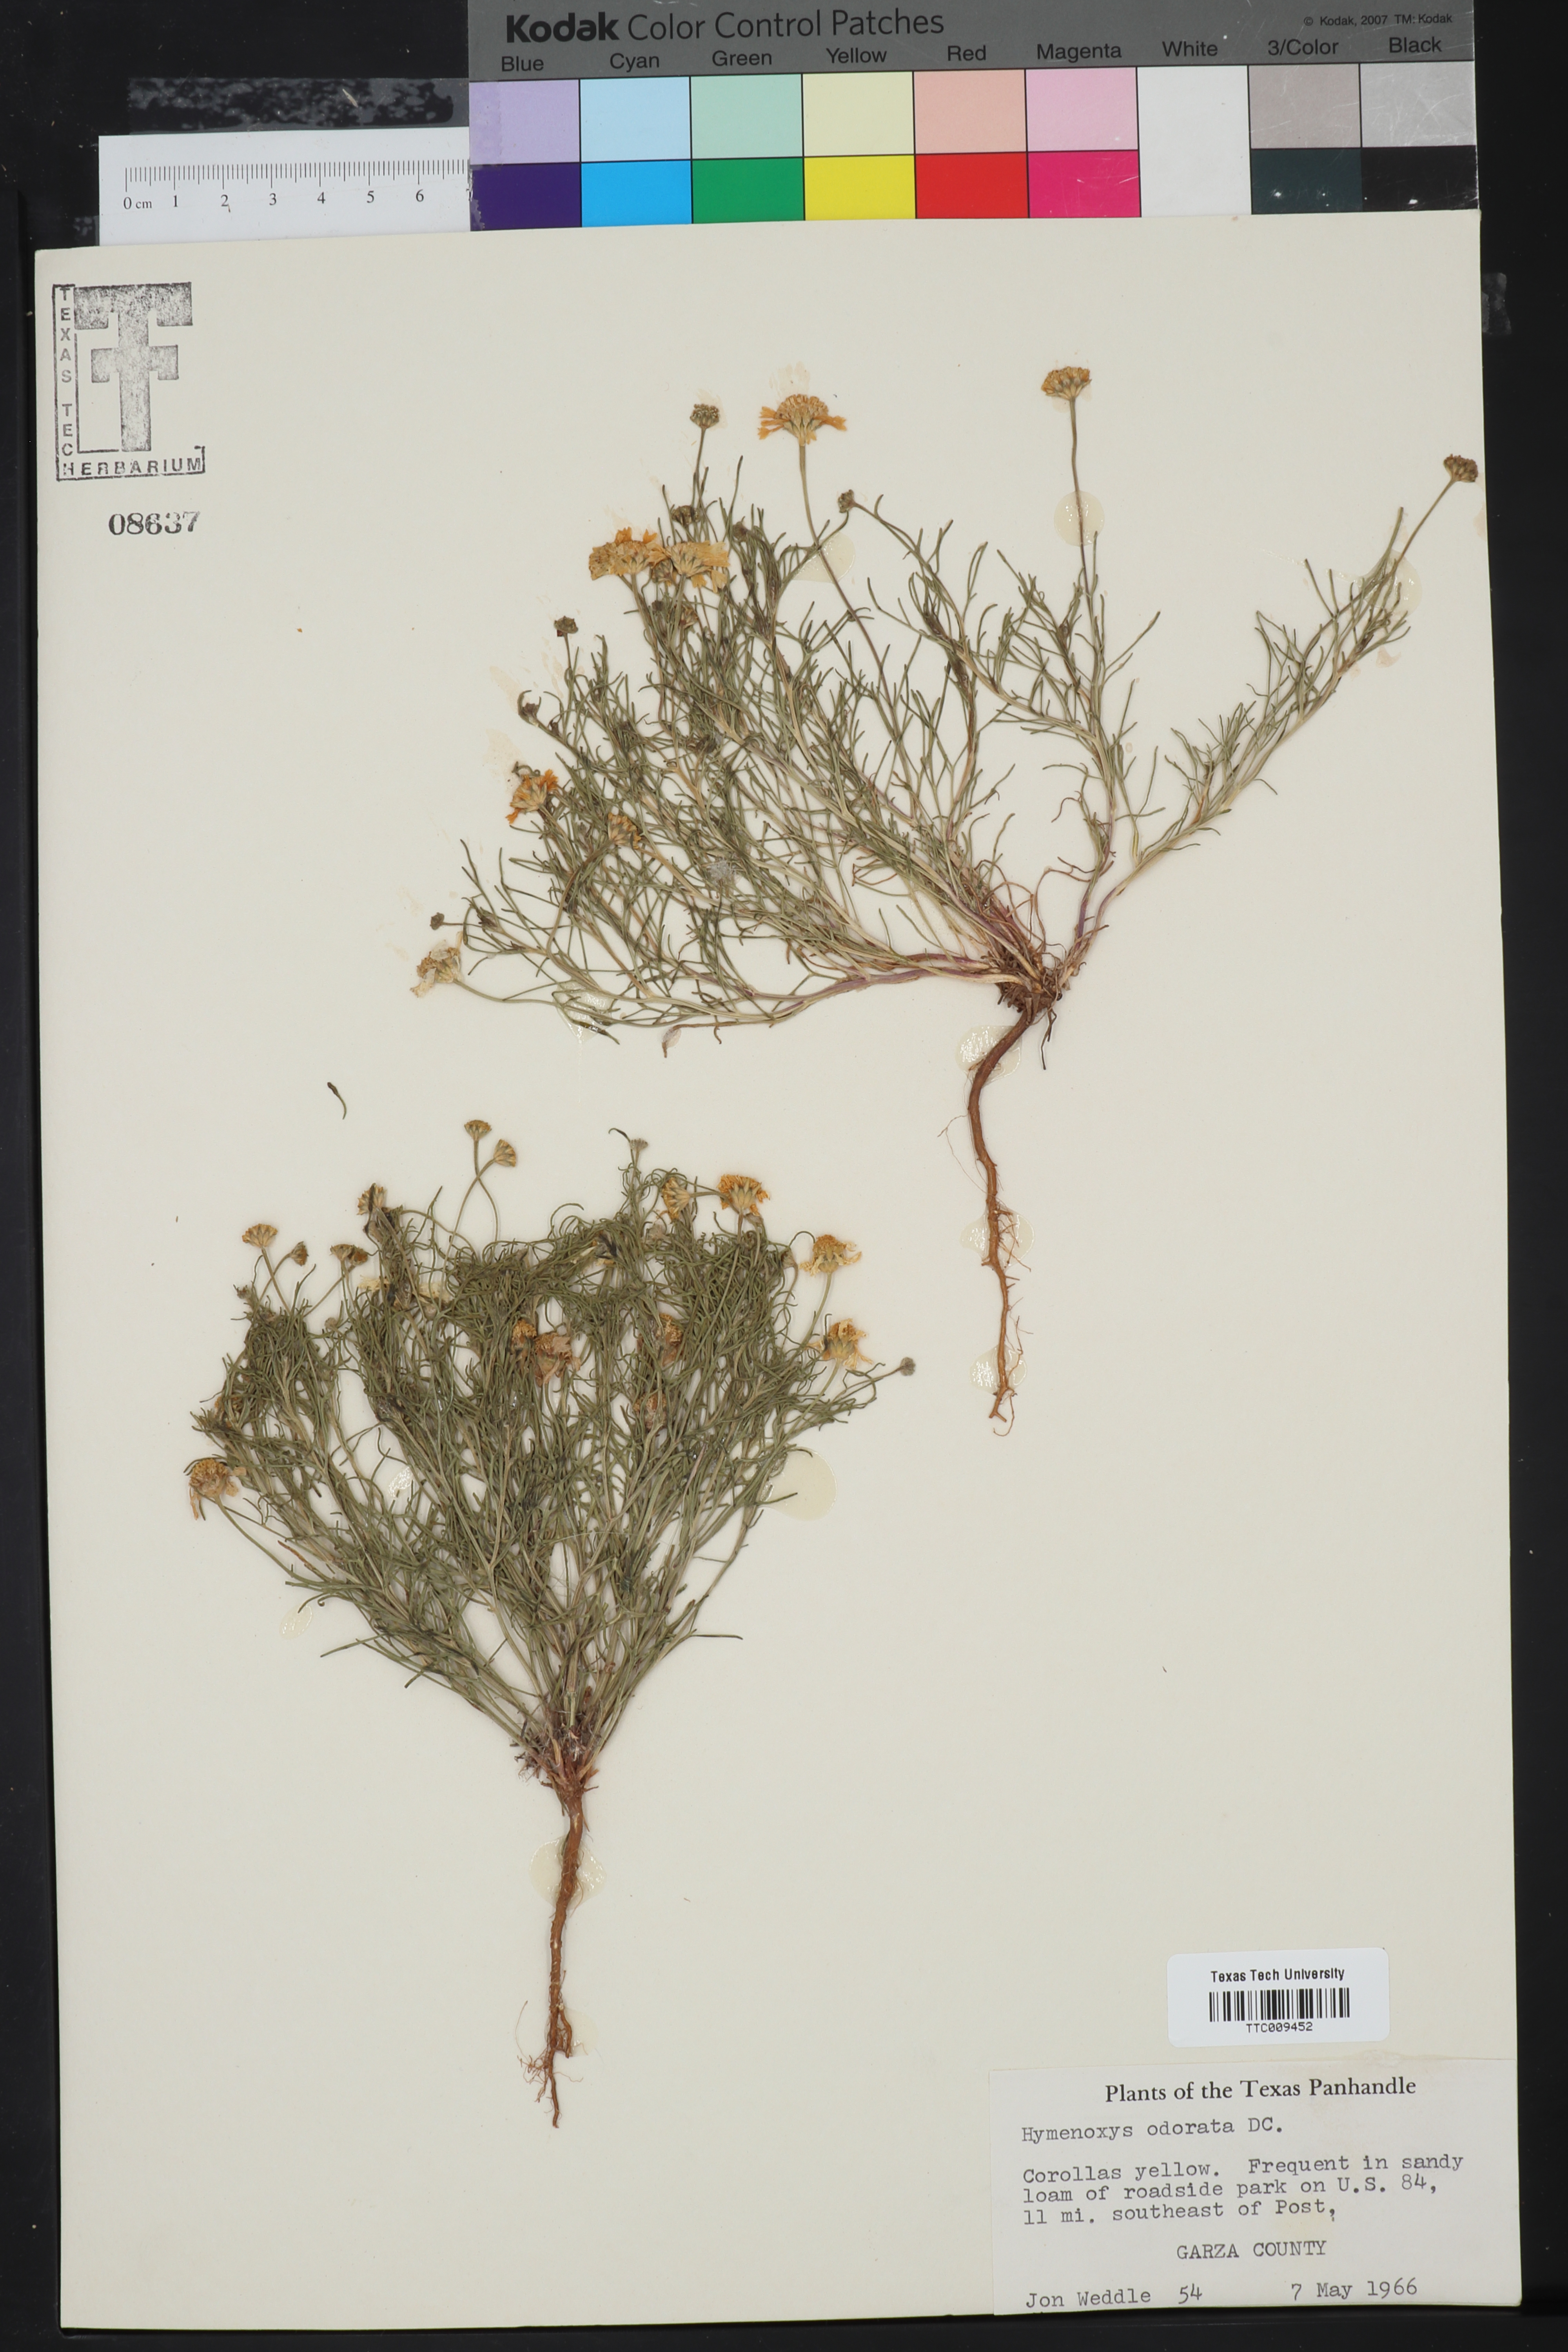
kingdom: Plantae
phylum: Tracheophyta
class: Magnoliopsida
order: Asterales
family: Asteraceae
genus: Hymenoxys
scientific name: Hymenoxys odorata
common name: Bitter rubberweed
